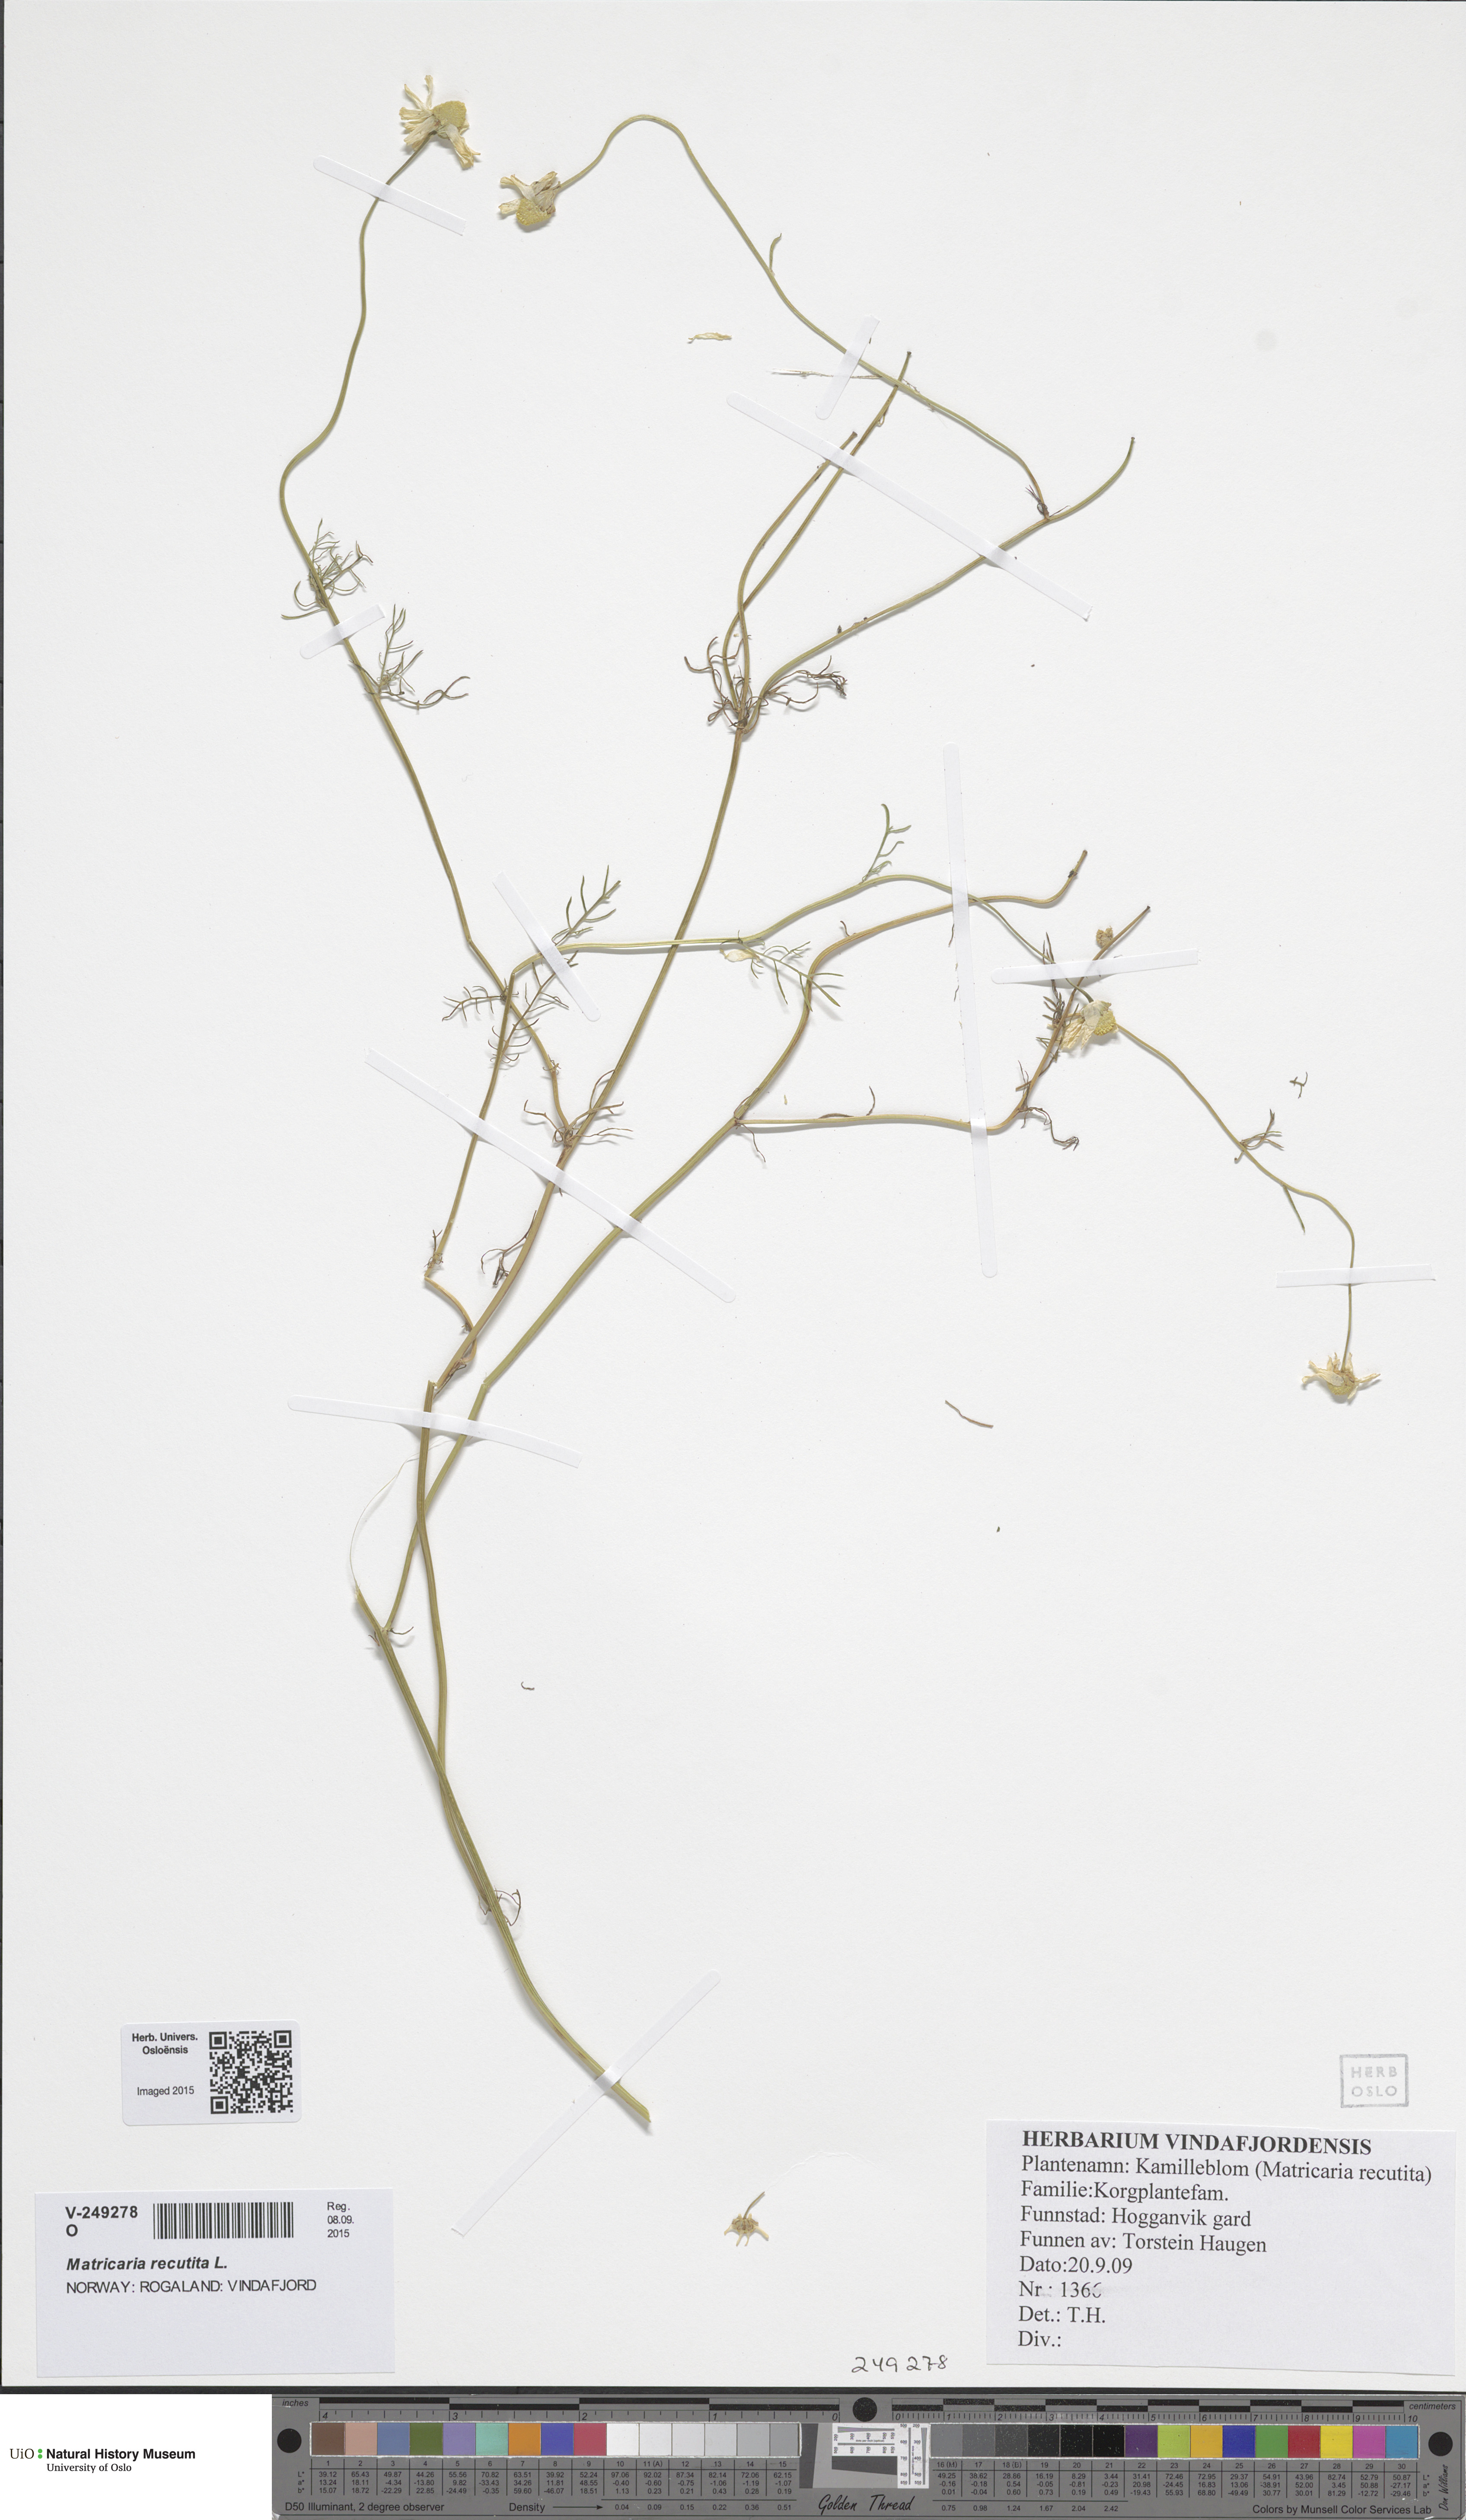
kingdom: Plantae
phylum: Tracheophyta
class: Magnoliopsida
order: Asterales
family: Asteraceae
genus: Matricaria
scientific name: Matricaria chamomilla
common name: Scented mayweed
